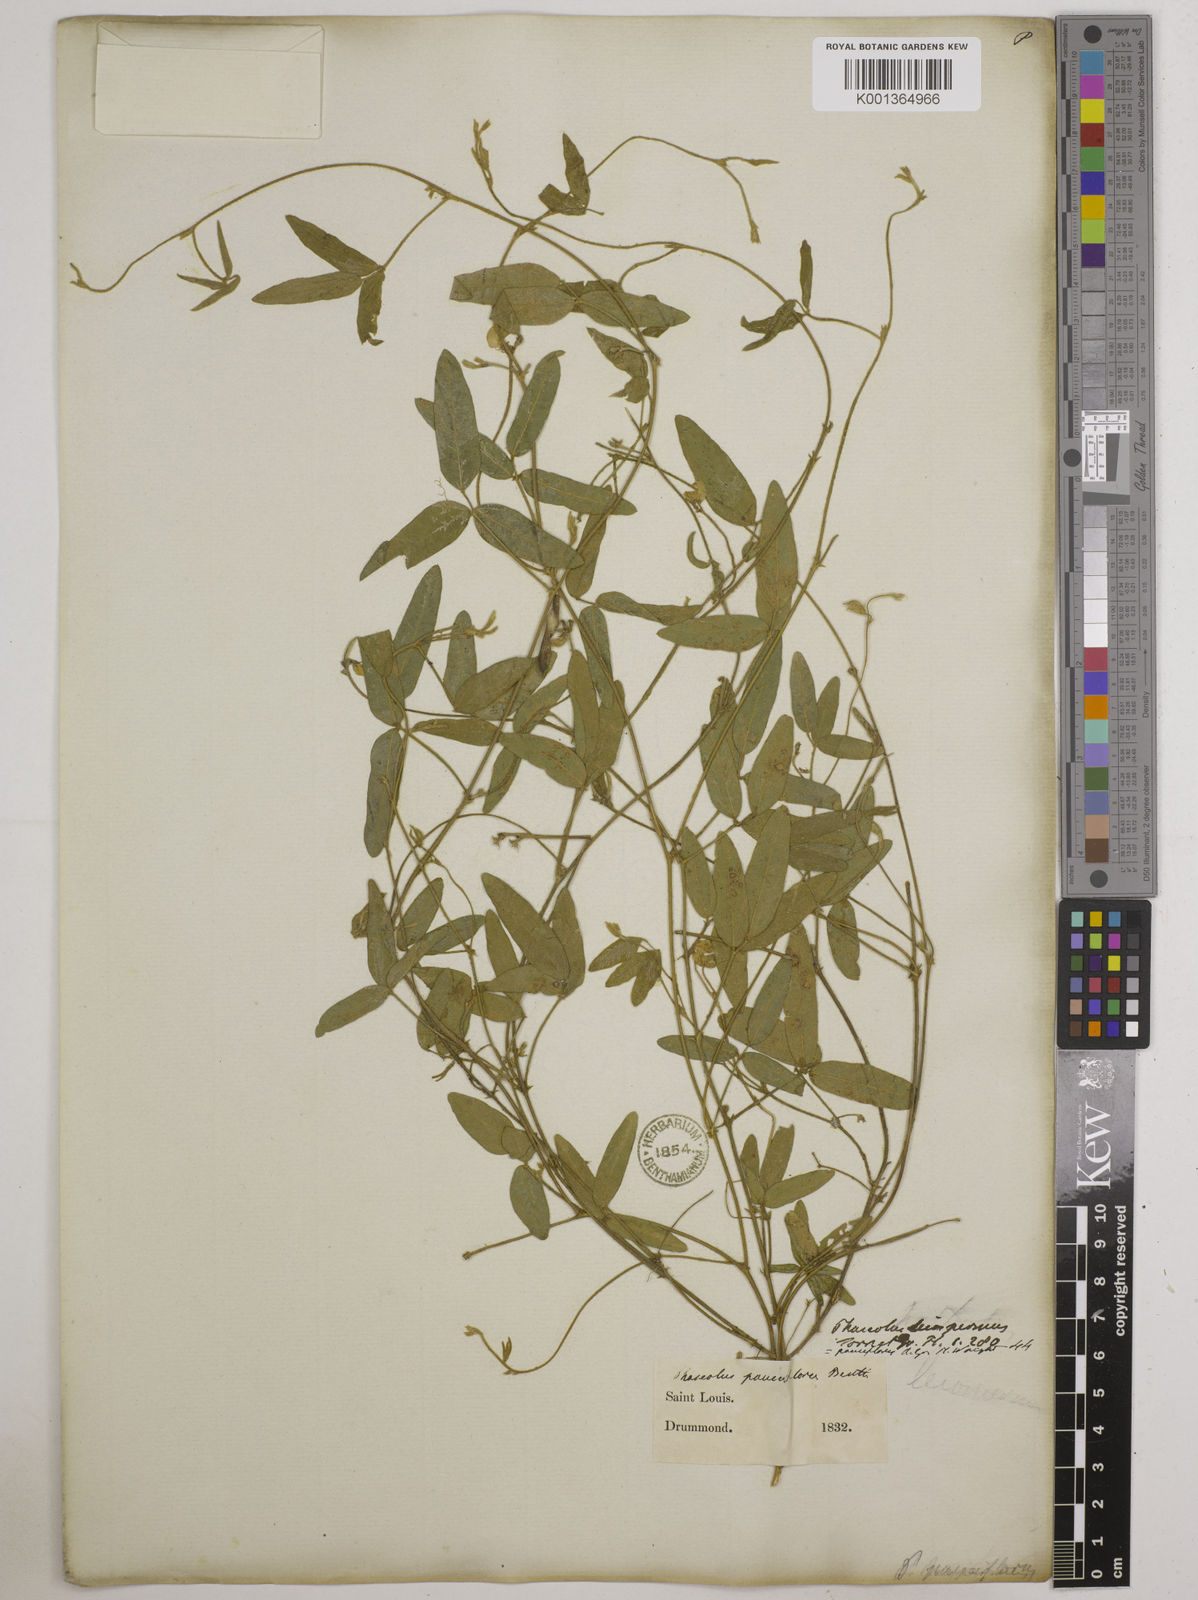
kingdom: Plantae
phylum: Tracheophyta
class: Magnoliopsida
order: Fabales
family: Fabaceae
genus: Strophostyles
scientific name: Strophostyles leiosperma
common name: Smooth-seed wild bean
